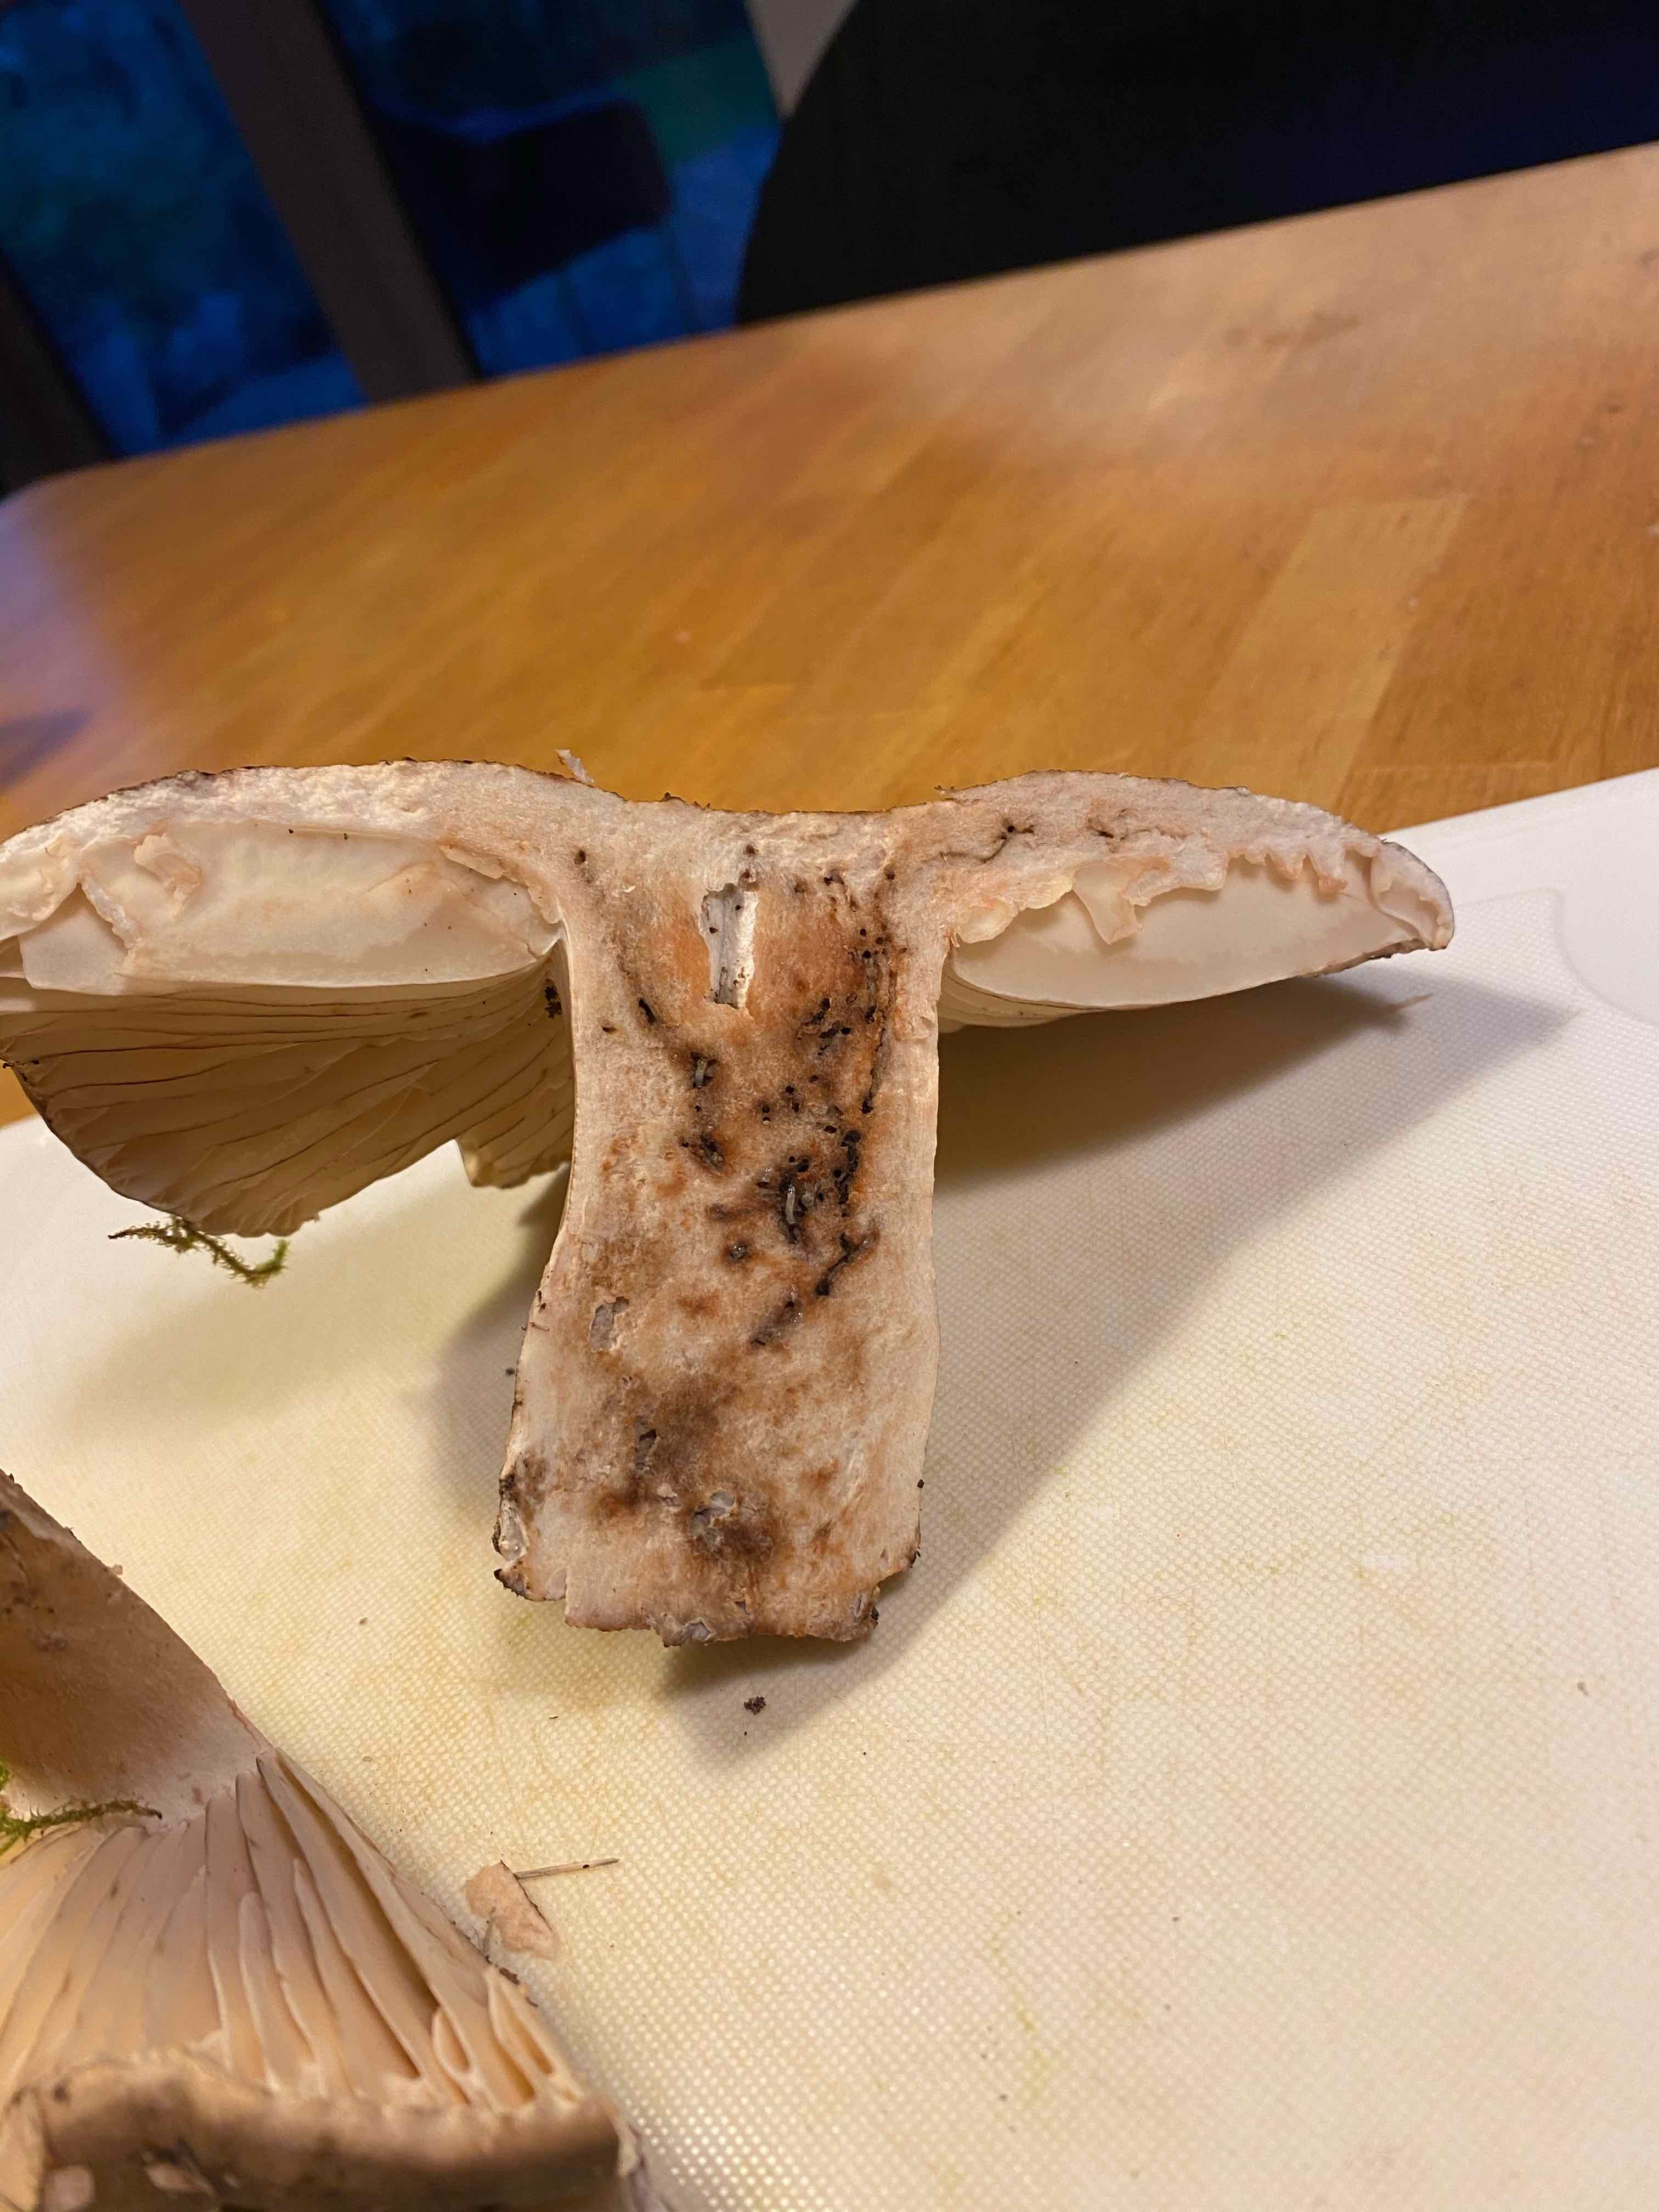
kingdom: Fungi
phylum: Basidiomycota
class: Agaricomycetes
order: Russulales
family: Russulaceae
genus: Russula
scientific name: Russula adusta
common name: sværtende skørhat
